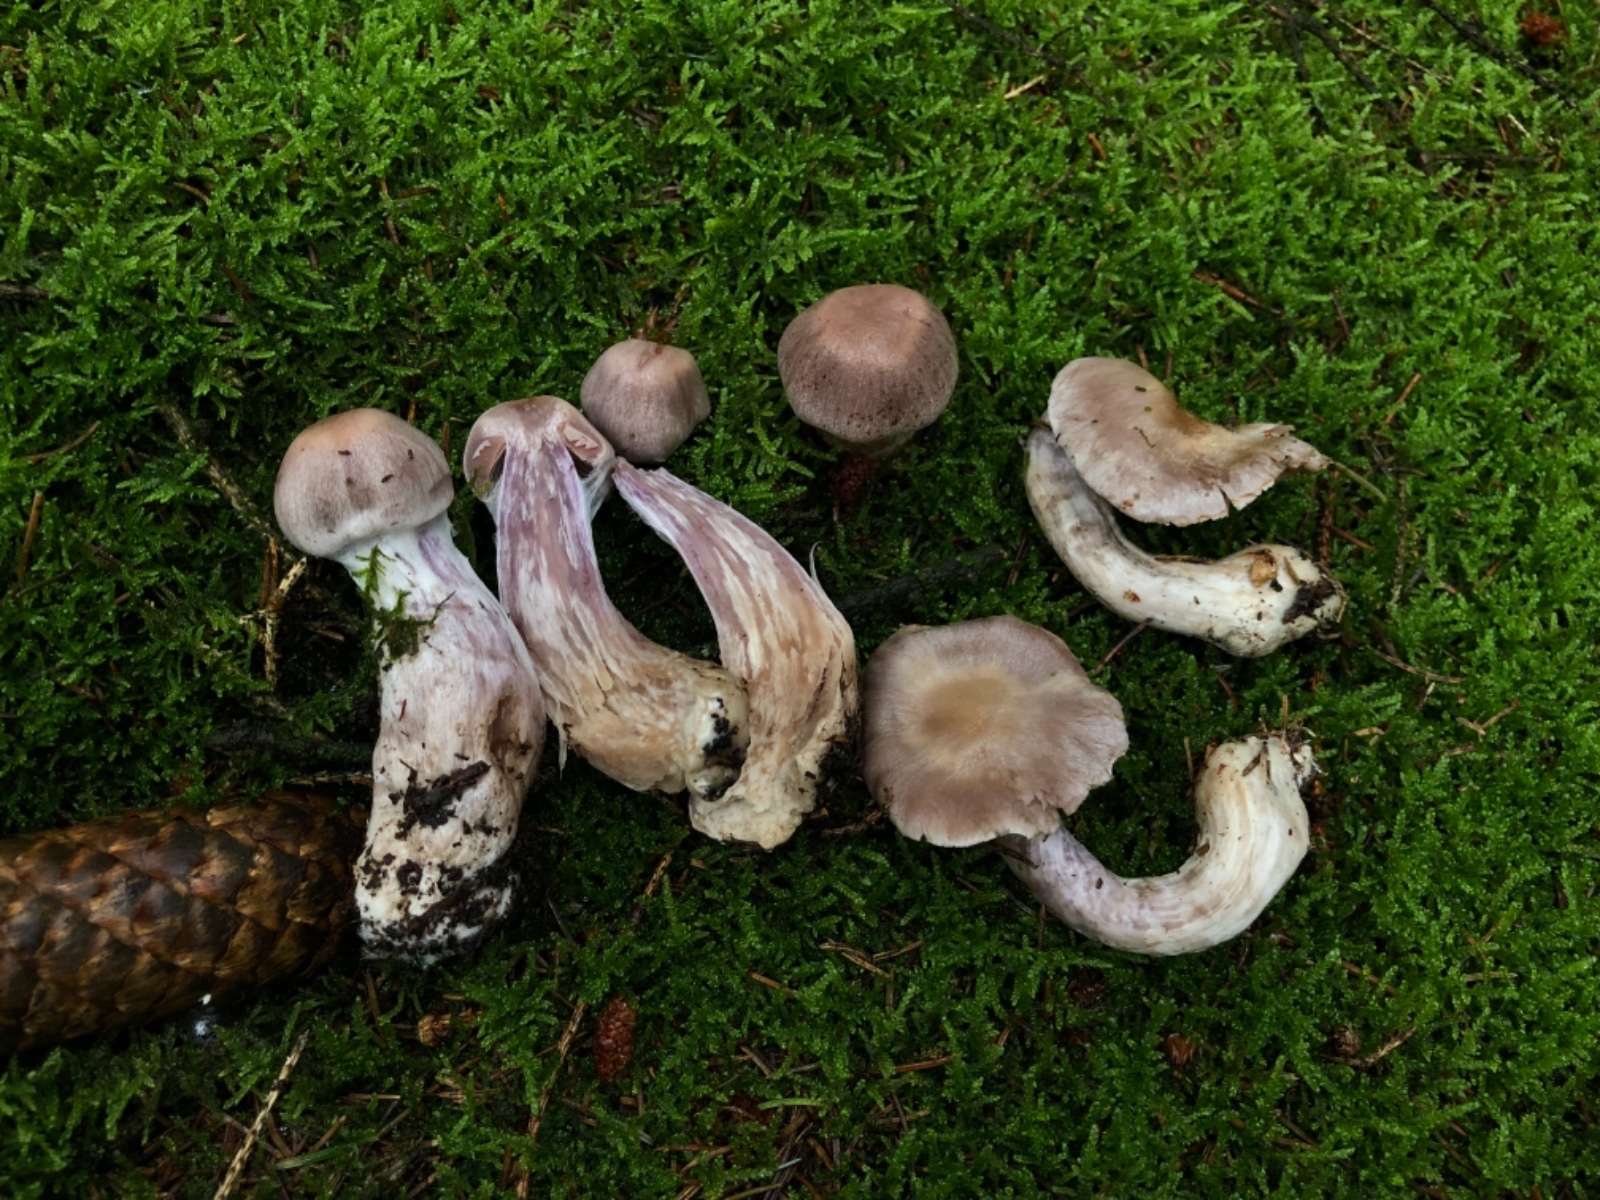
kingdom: Fungi
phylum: Basidiomycota
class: Agaricomycetes
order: Agaricales
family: Cortinariaceae
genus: Cortinarius
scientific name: Cortinarius malachius
